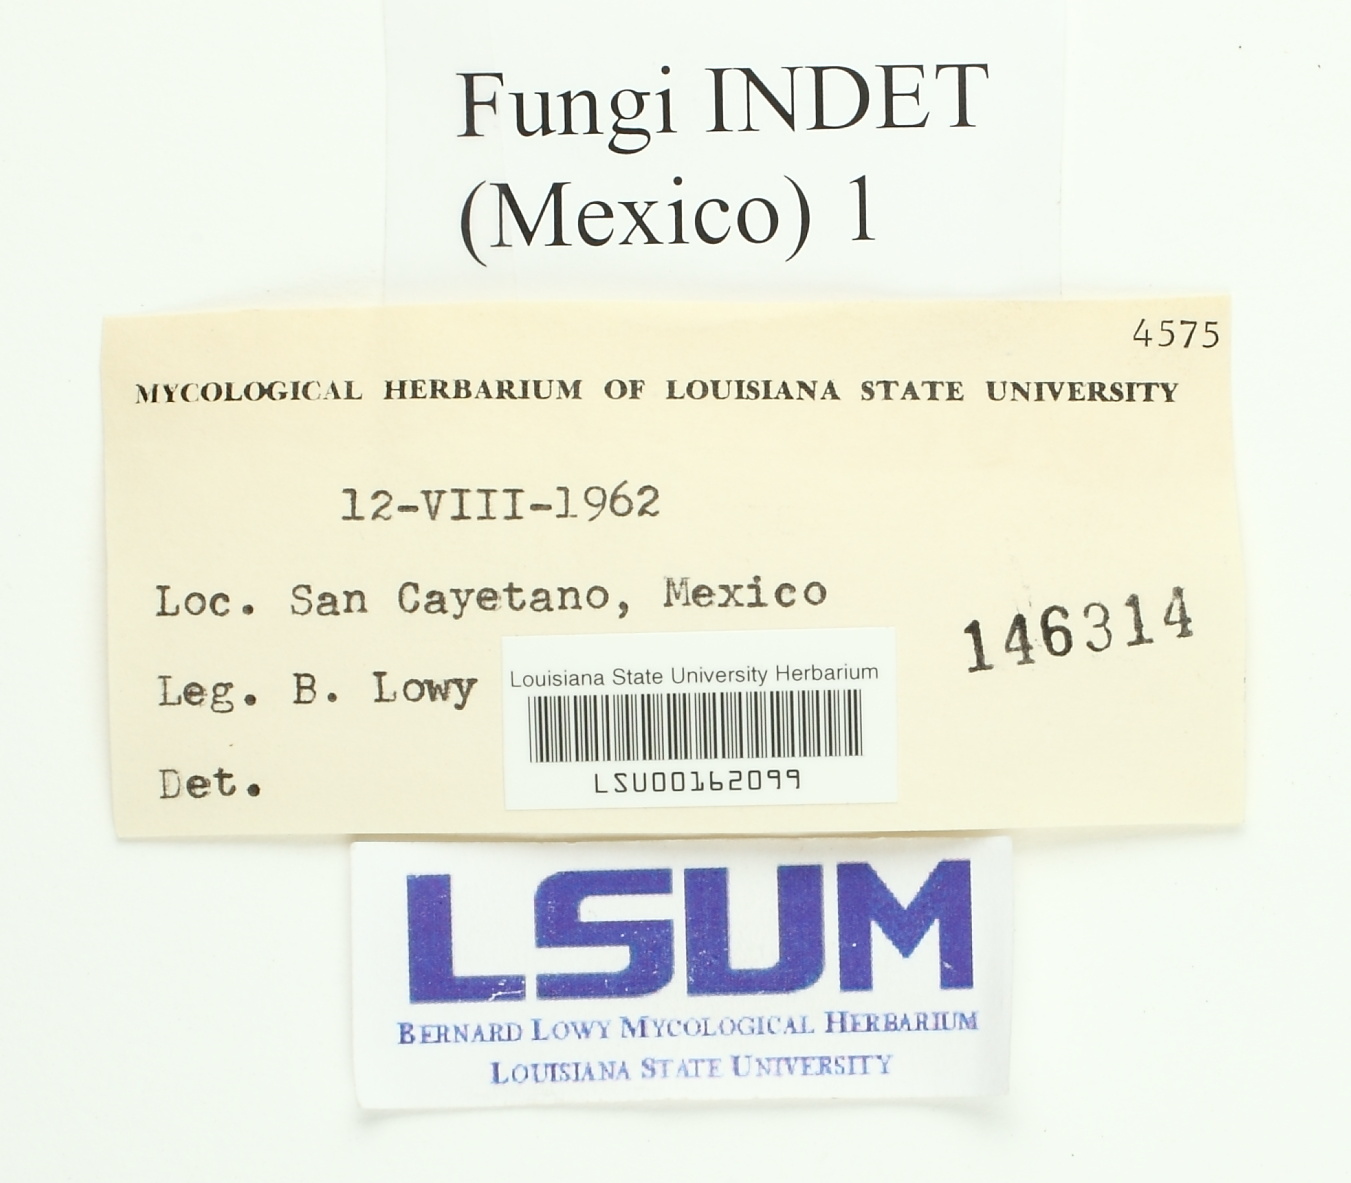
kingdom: Fungi
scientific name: Fungi
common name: Fungi
